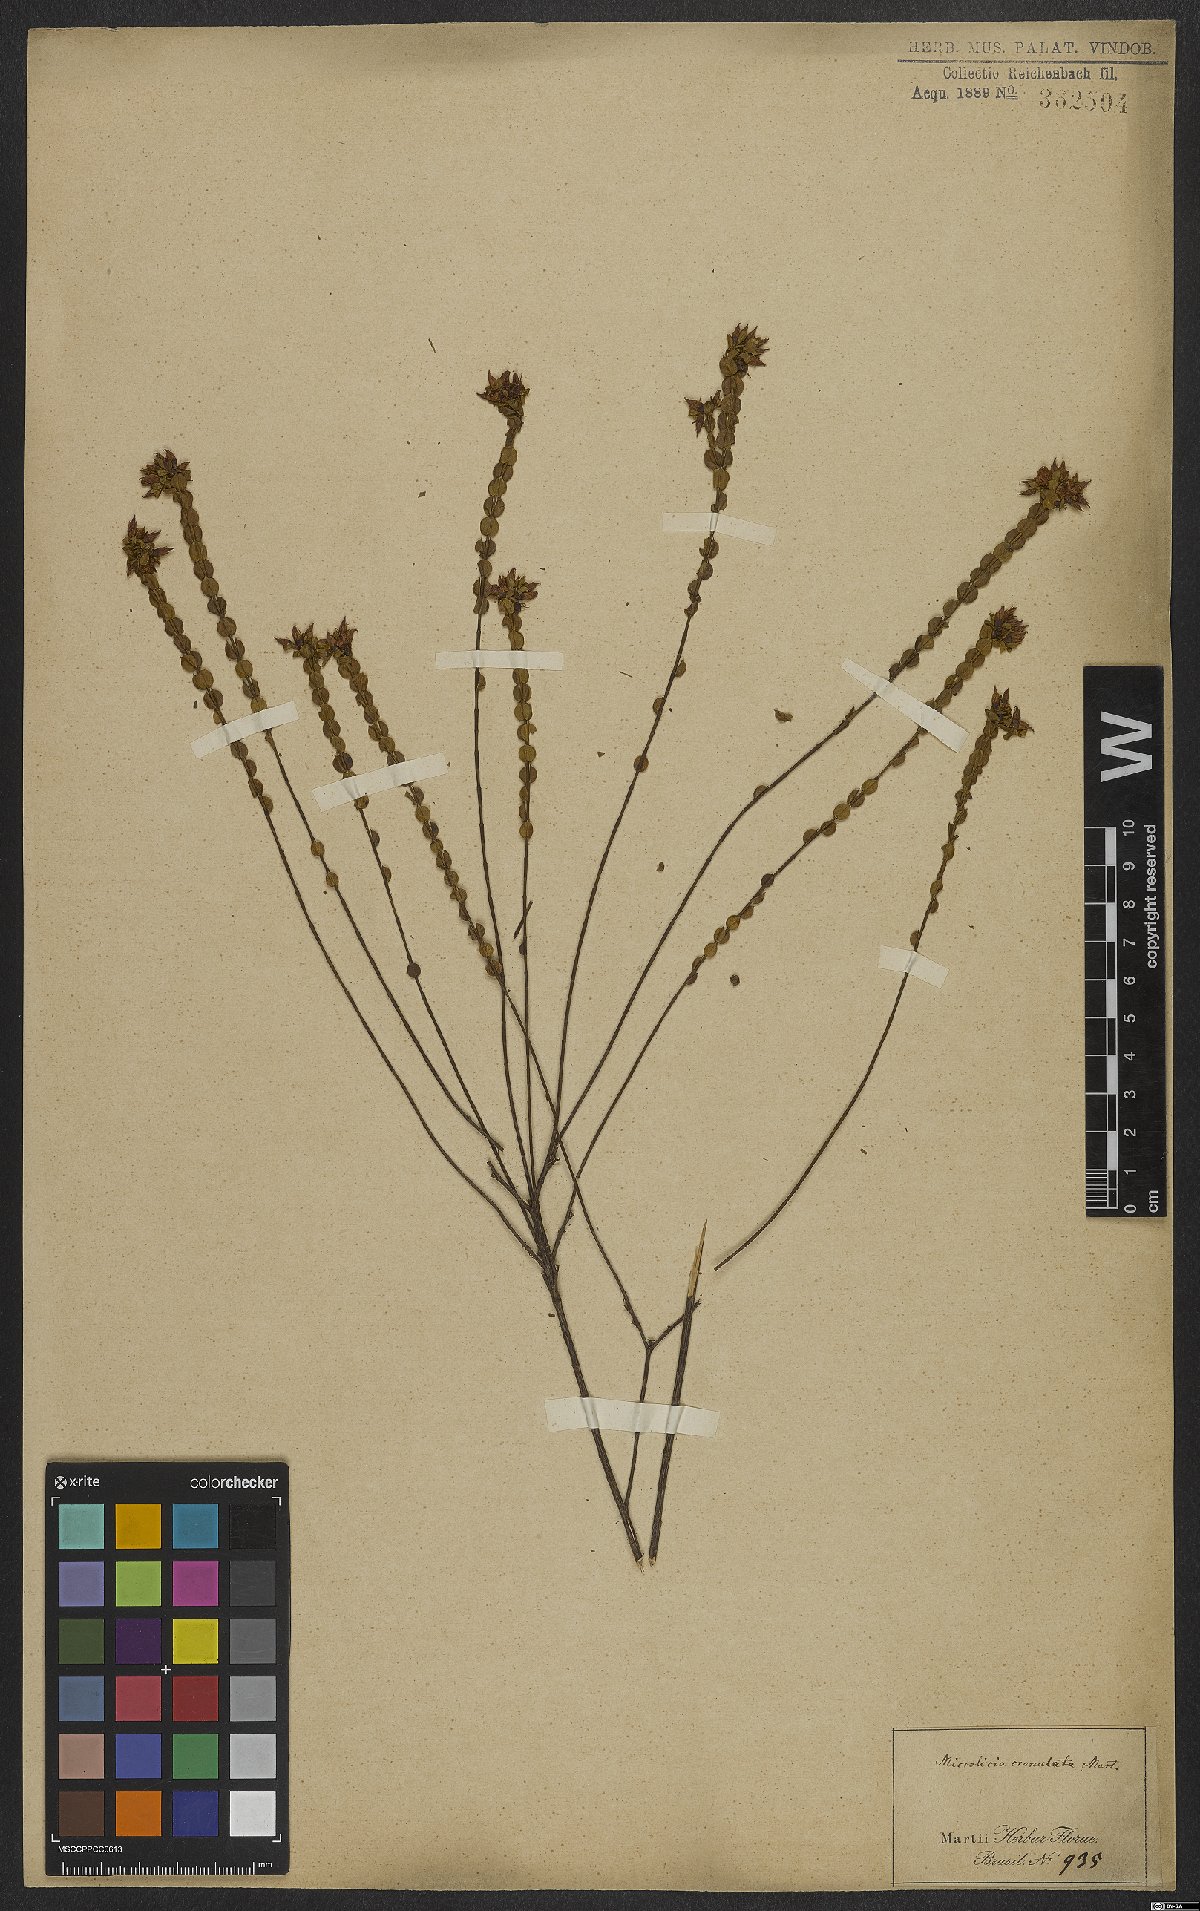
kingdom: Plantae
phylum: Tracheophyta
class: Magnoliopsida
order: Myrtales
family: Melastomataceae
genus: Microlicia
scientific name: Microlicia crenulata
